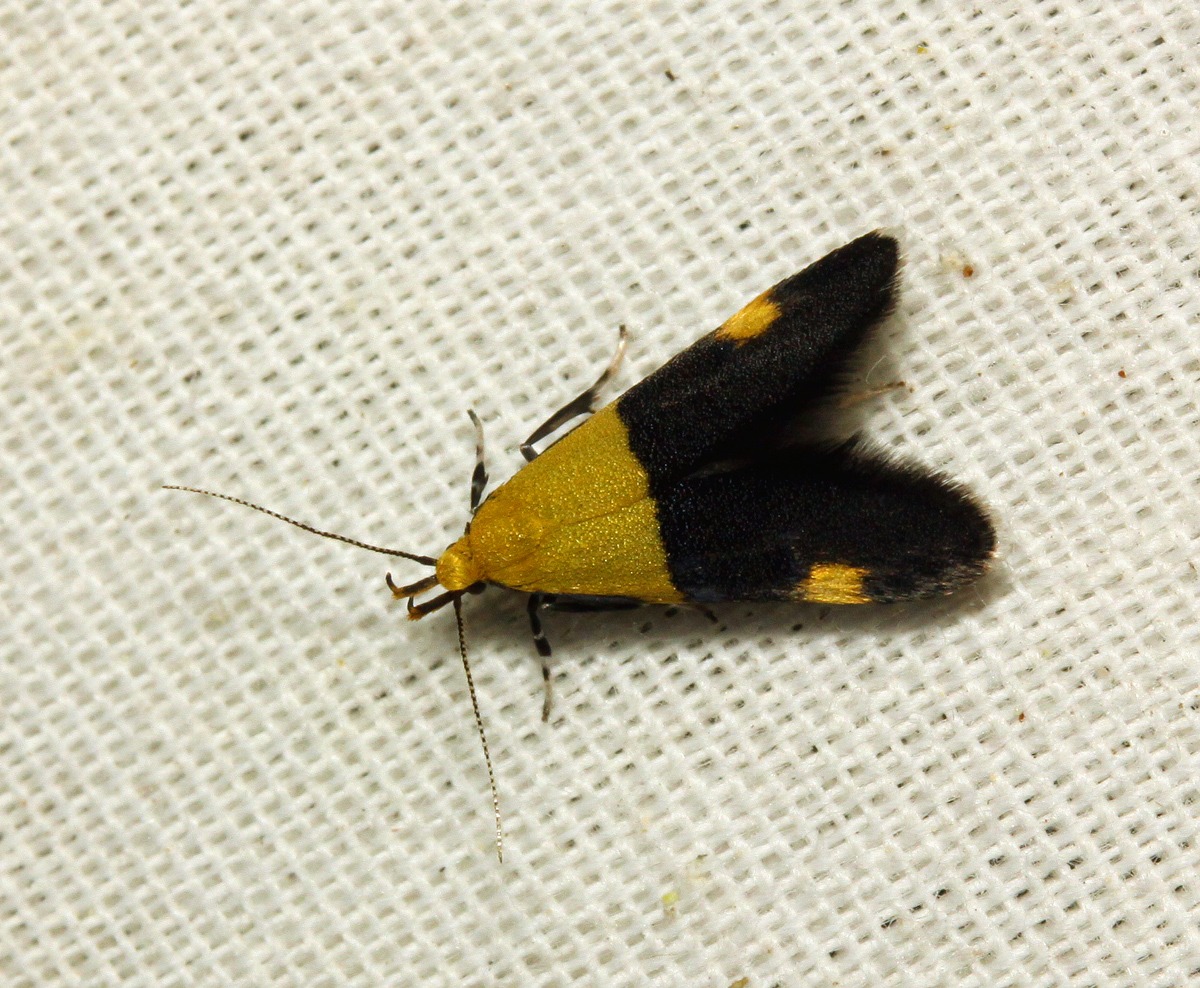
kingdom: Animalia
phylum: Arthropoda
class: Insecta
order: Lepidoptera
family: Oecophoridae
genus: Oecophora
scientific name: Oecophora bractella
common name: Tofarvet prydvinge
